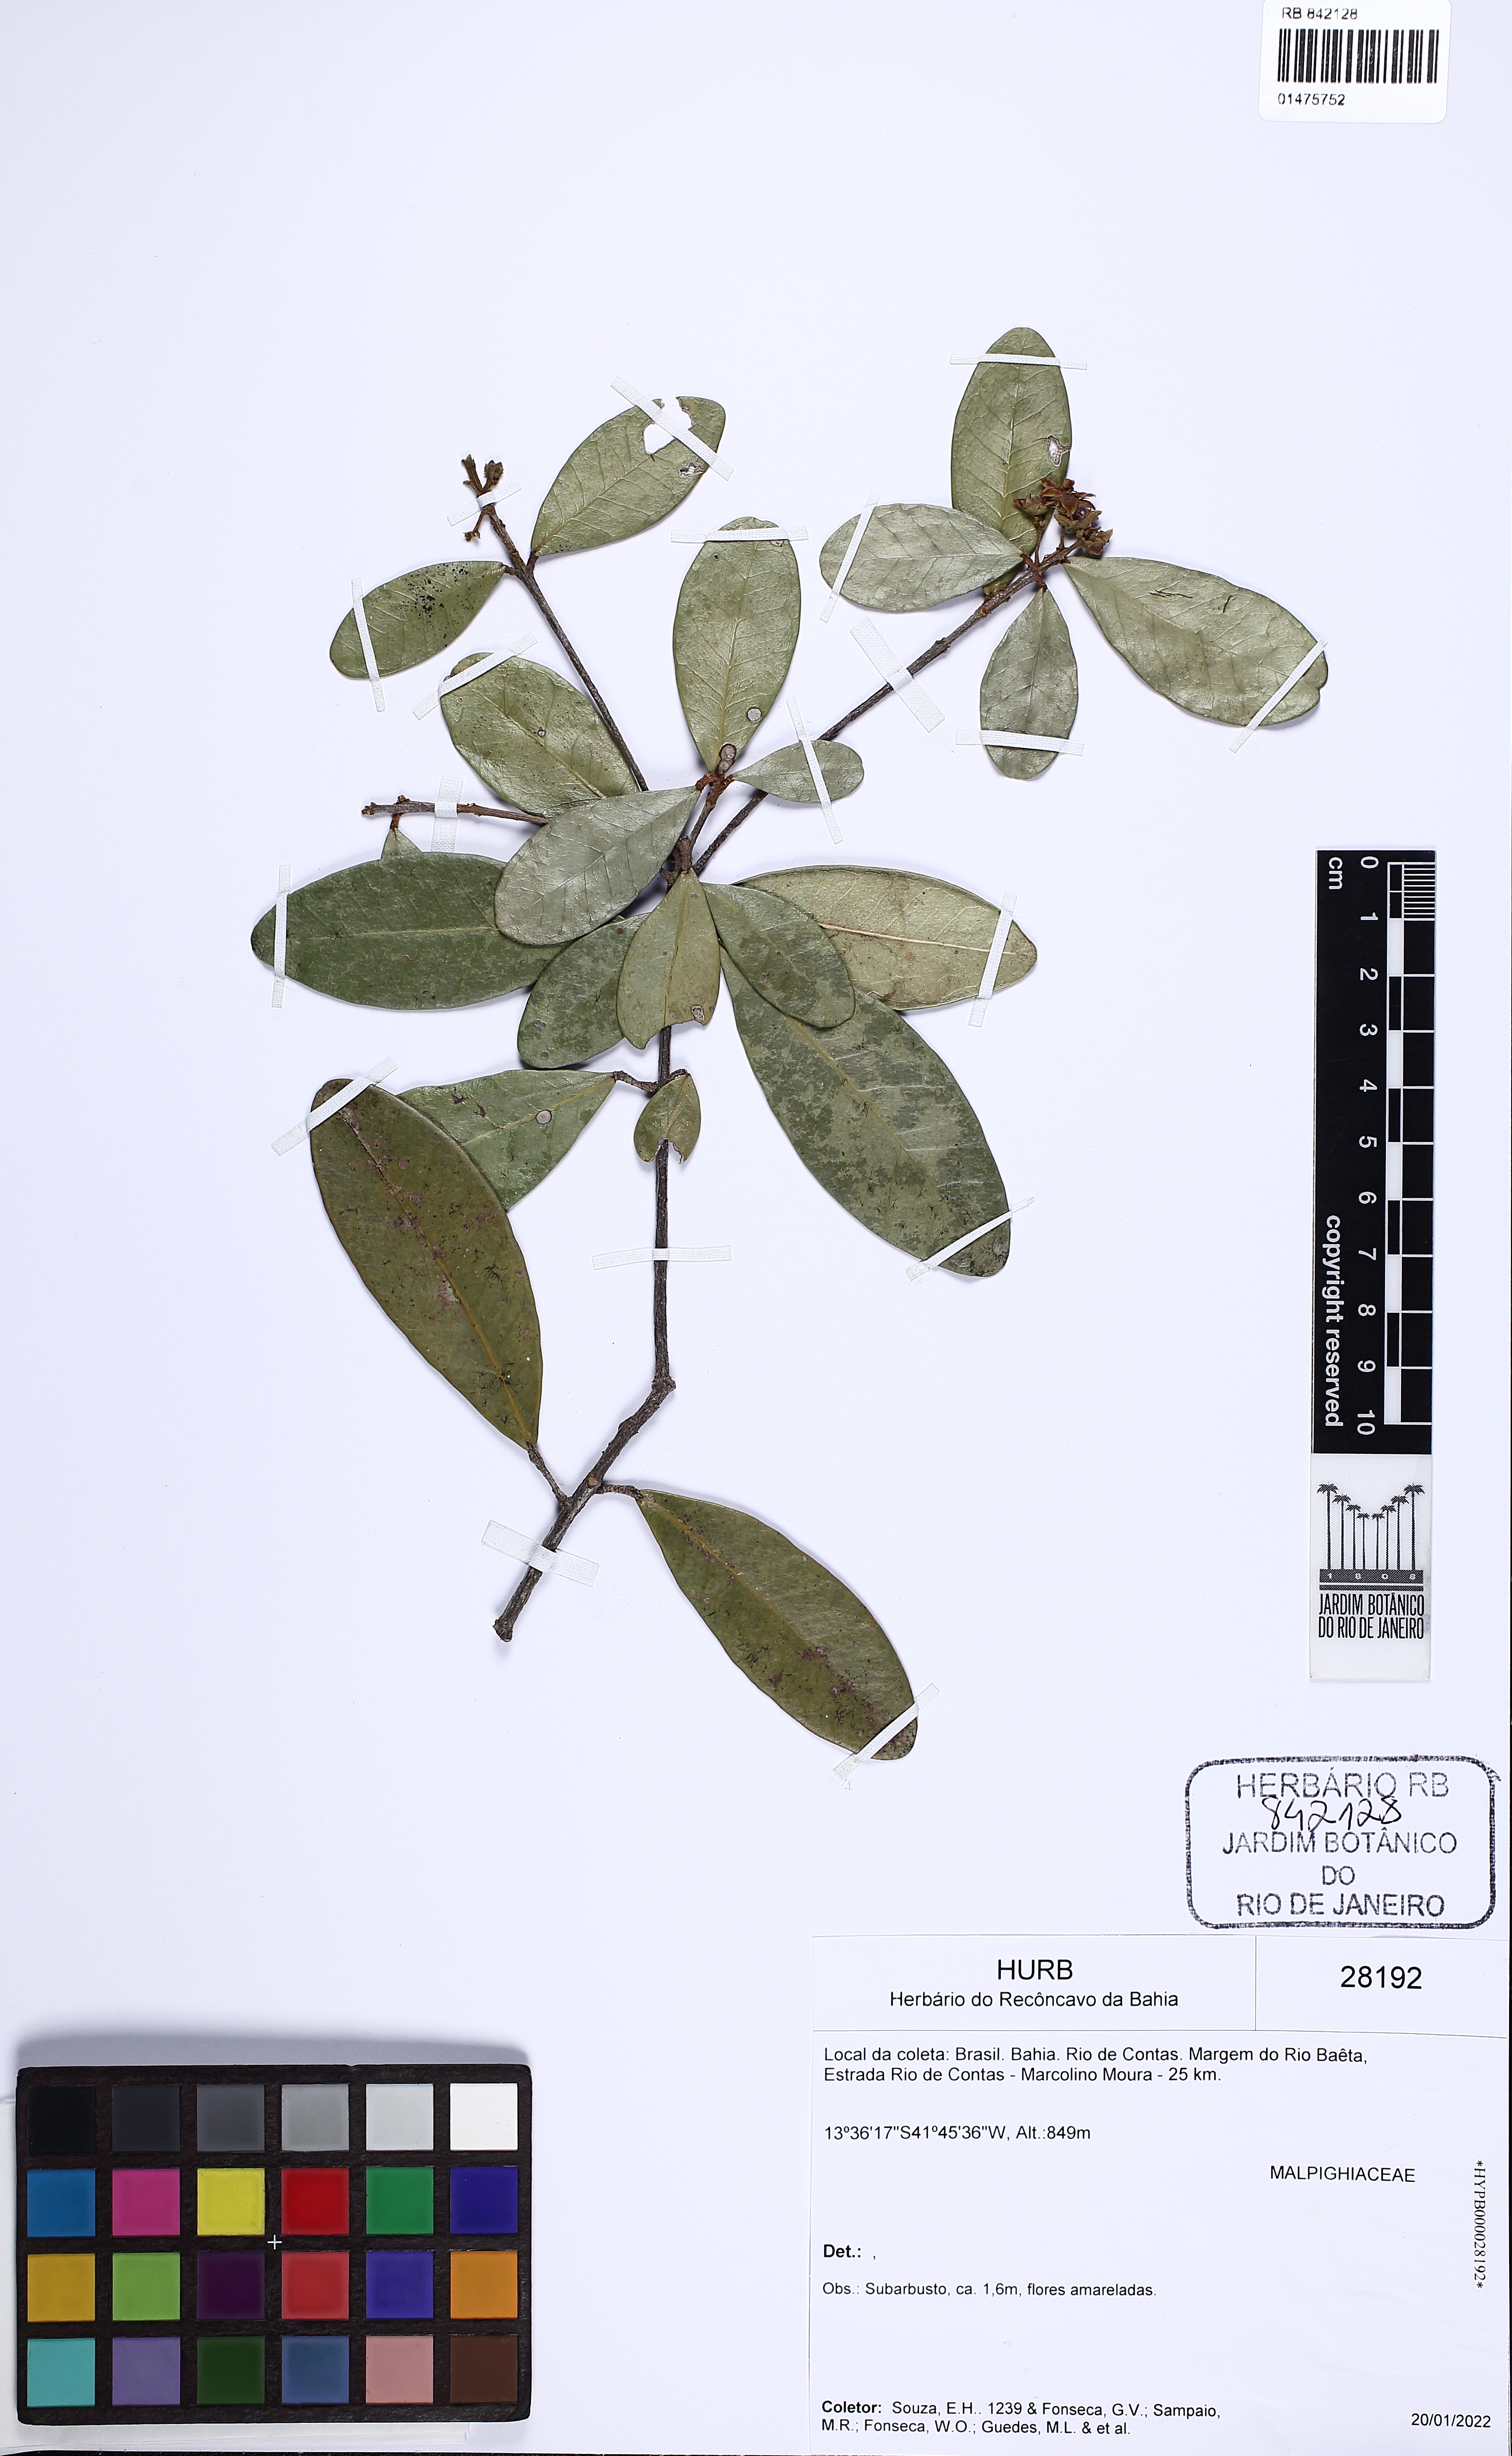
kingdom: Plantae
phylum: Tracheophyta
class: Magnoliopsida
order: Sapindales
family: Rutaceae
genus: Esenbeckia
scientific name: Esenbeckia grandiflora
